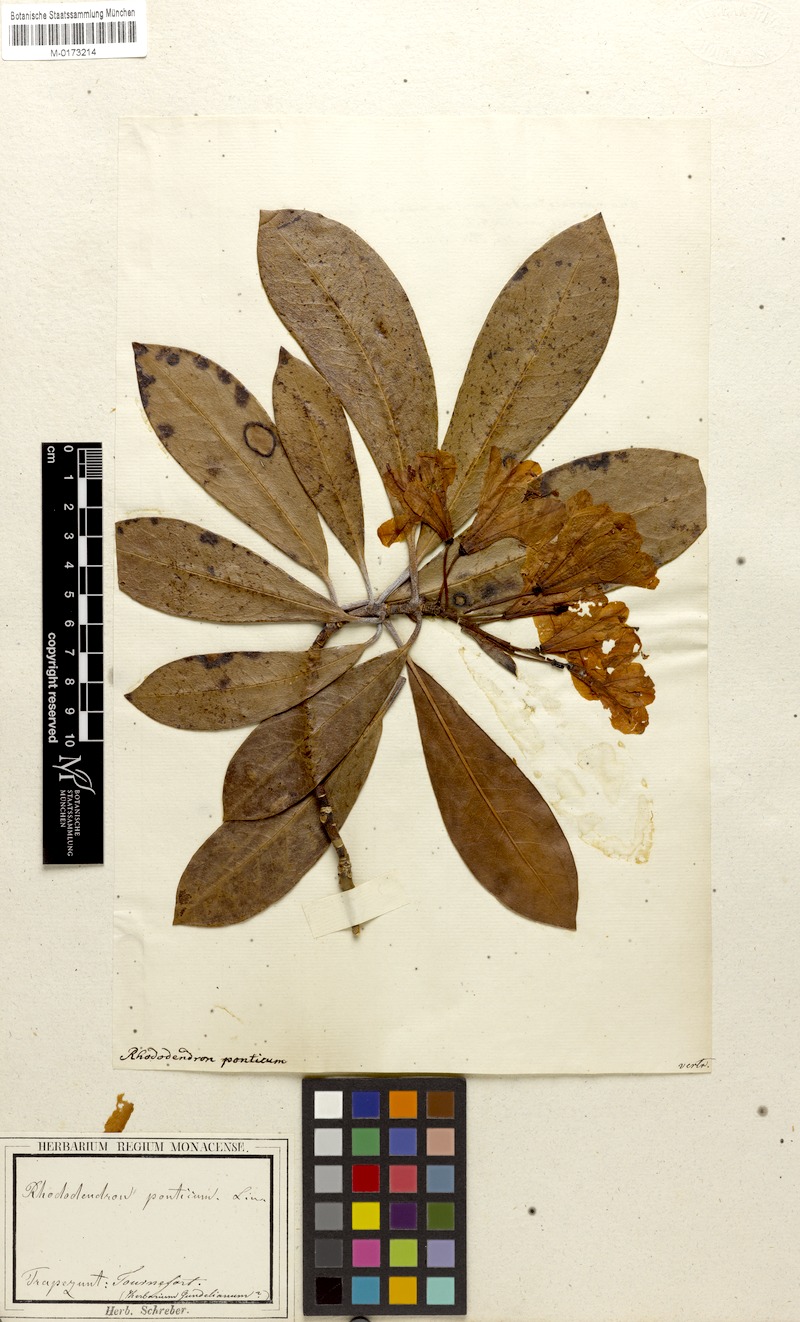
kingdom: Plantae
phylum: Tracheophyta
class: Magnoliopsida
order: Ericales
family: Ericaceae
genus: Rhododendron
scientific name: Rhododendron ponticum
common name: Rhododendron
